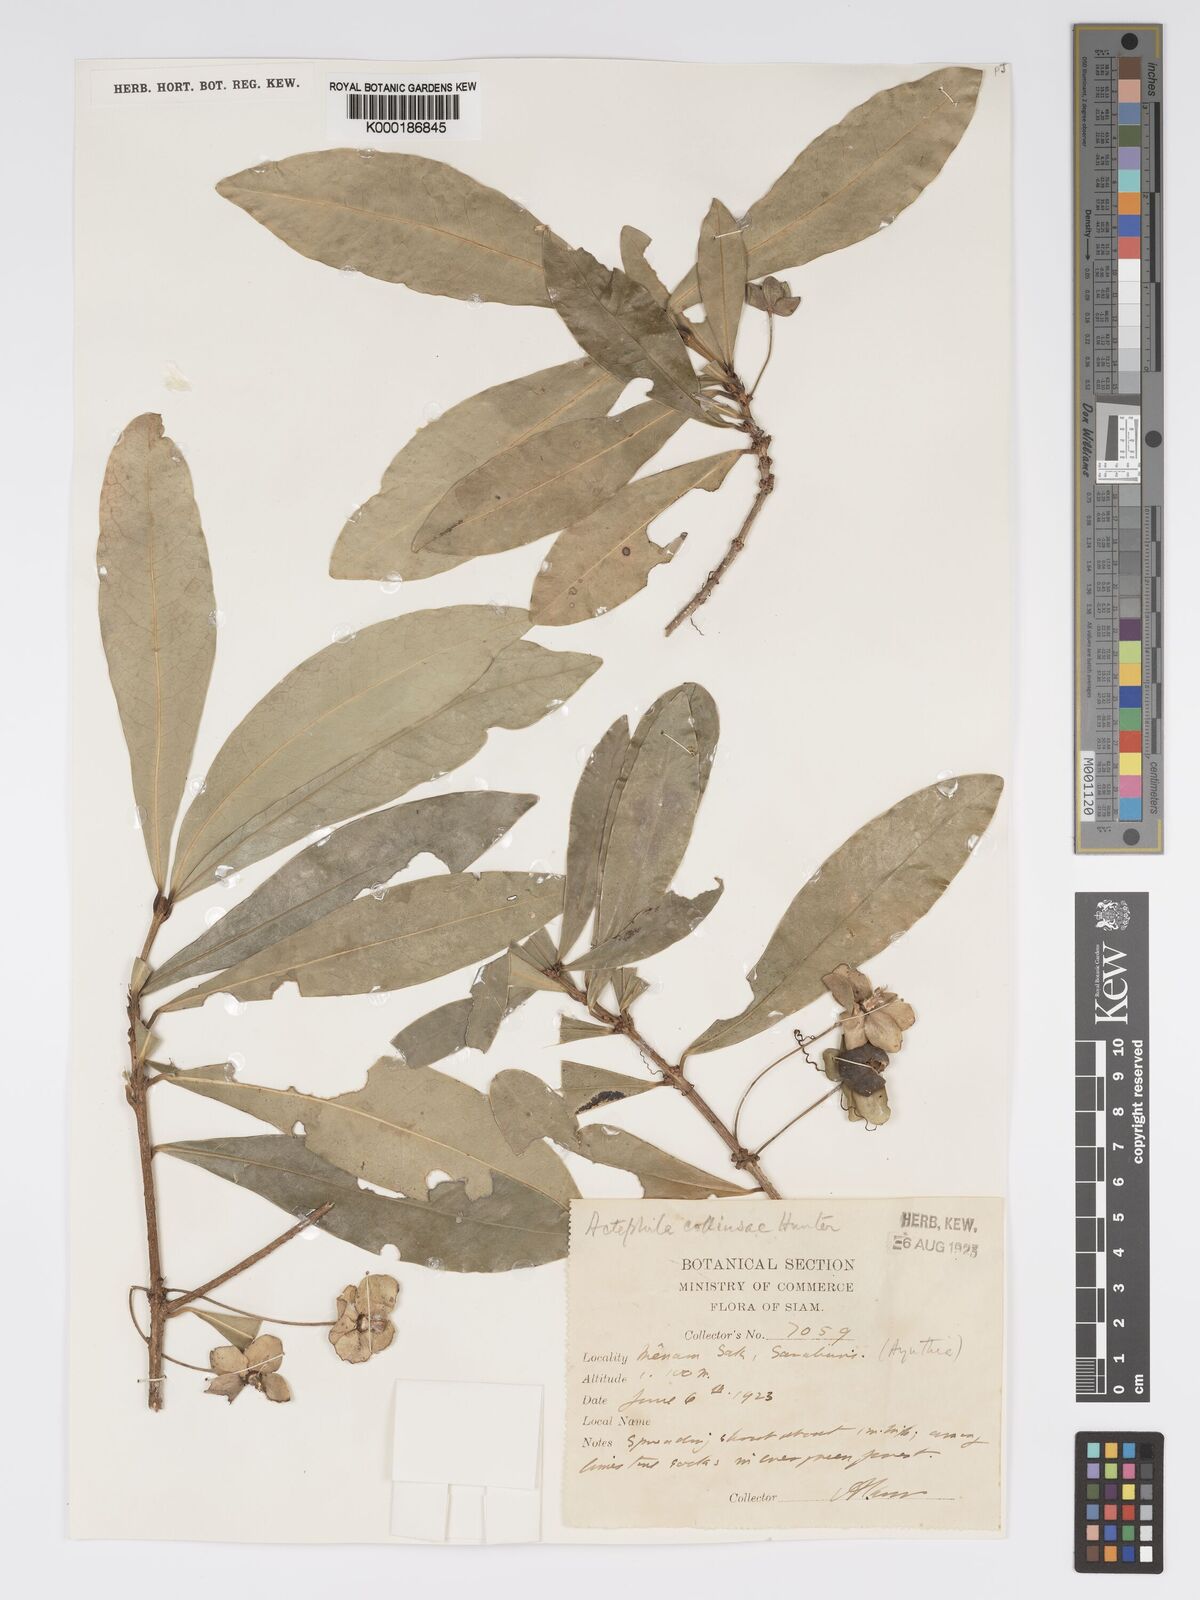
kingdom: Plantae
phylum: Tracheophyta
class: Magnoliopsida
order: Malpighiales
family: Phyllanthaceae
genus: Actephila
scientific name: Actephila collinsiae
